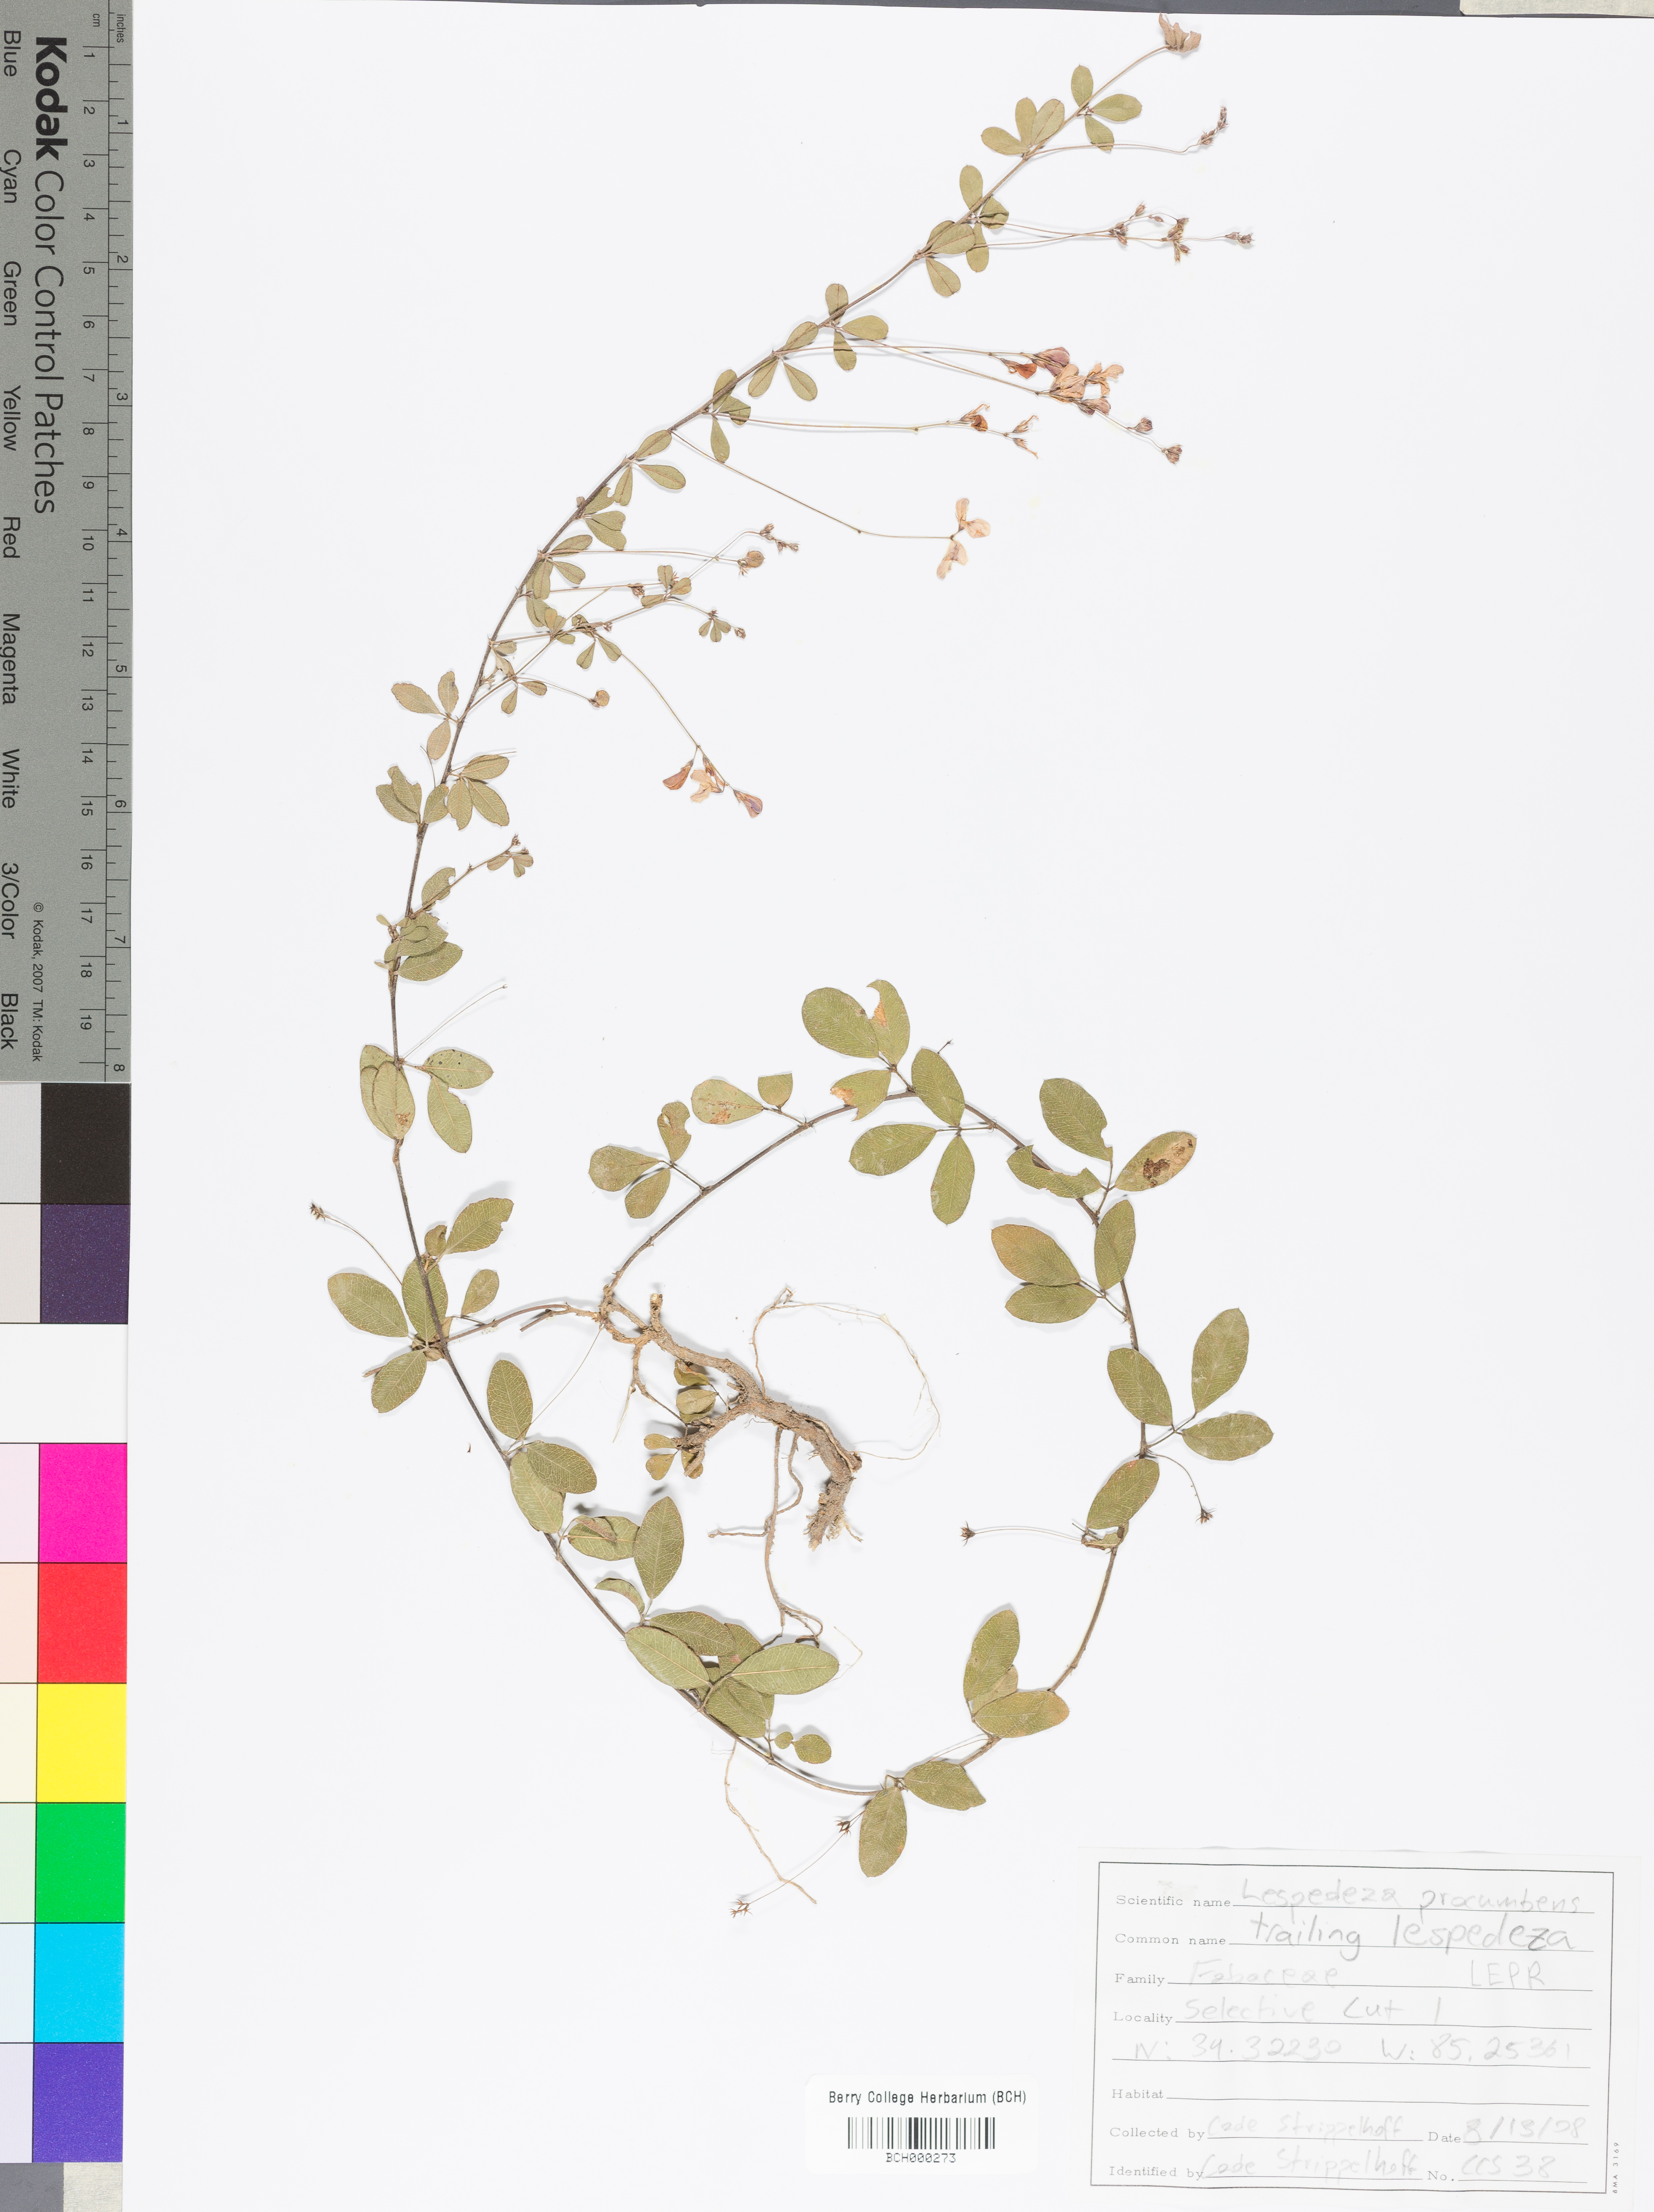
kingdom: Plantae
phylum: Tracheophyta
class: Magnoliopsida
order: Fabales
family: Fabaceae
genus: Lespedeza
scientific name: Lespedeza procumbens
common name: Downy trailing bush-clover
